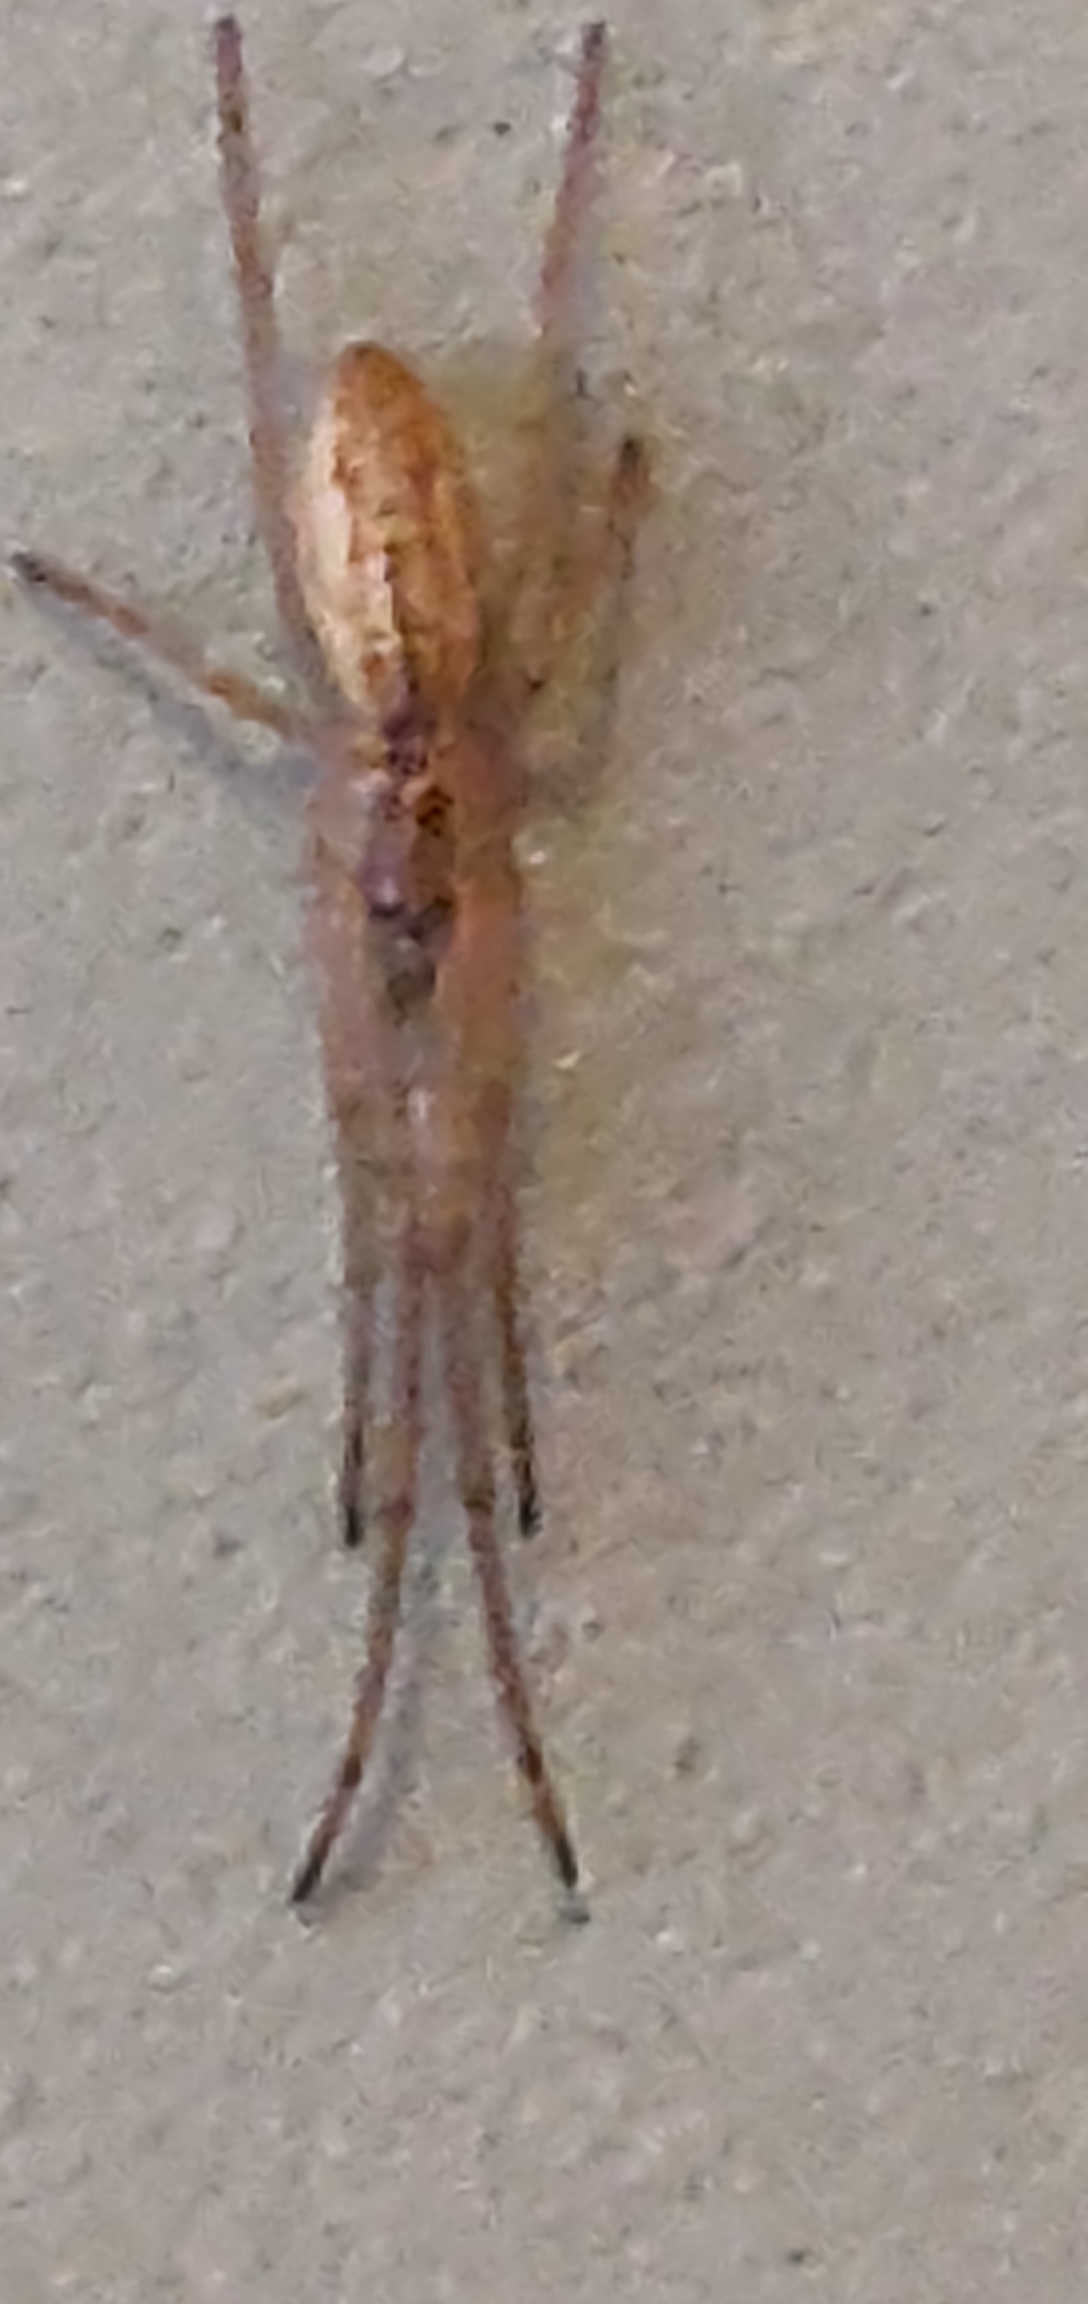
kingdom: Animalia
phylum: Arthropoda
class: Arachnida
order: Araneae
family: Tetragnathidae
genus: Tetragnatha
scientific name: Tetragnatha
